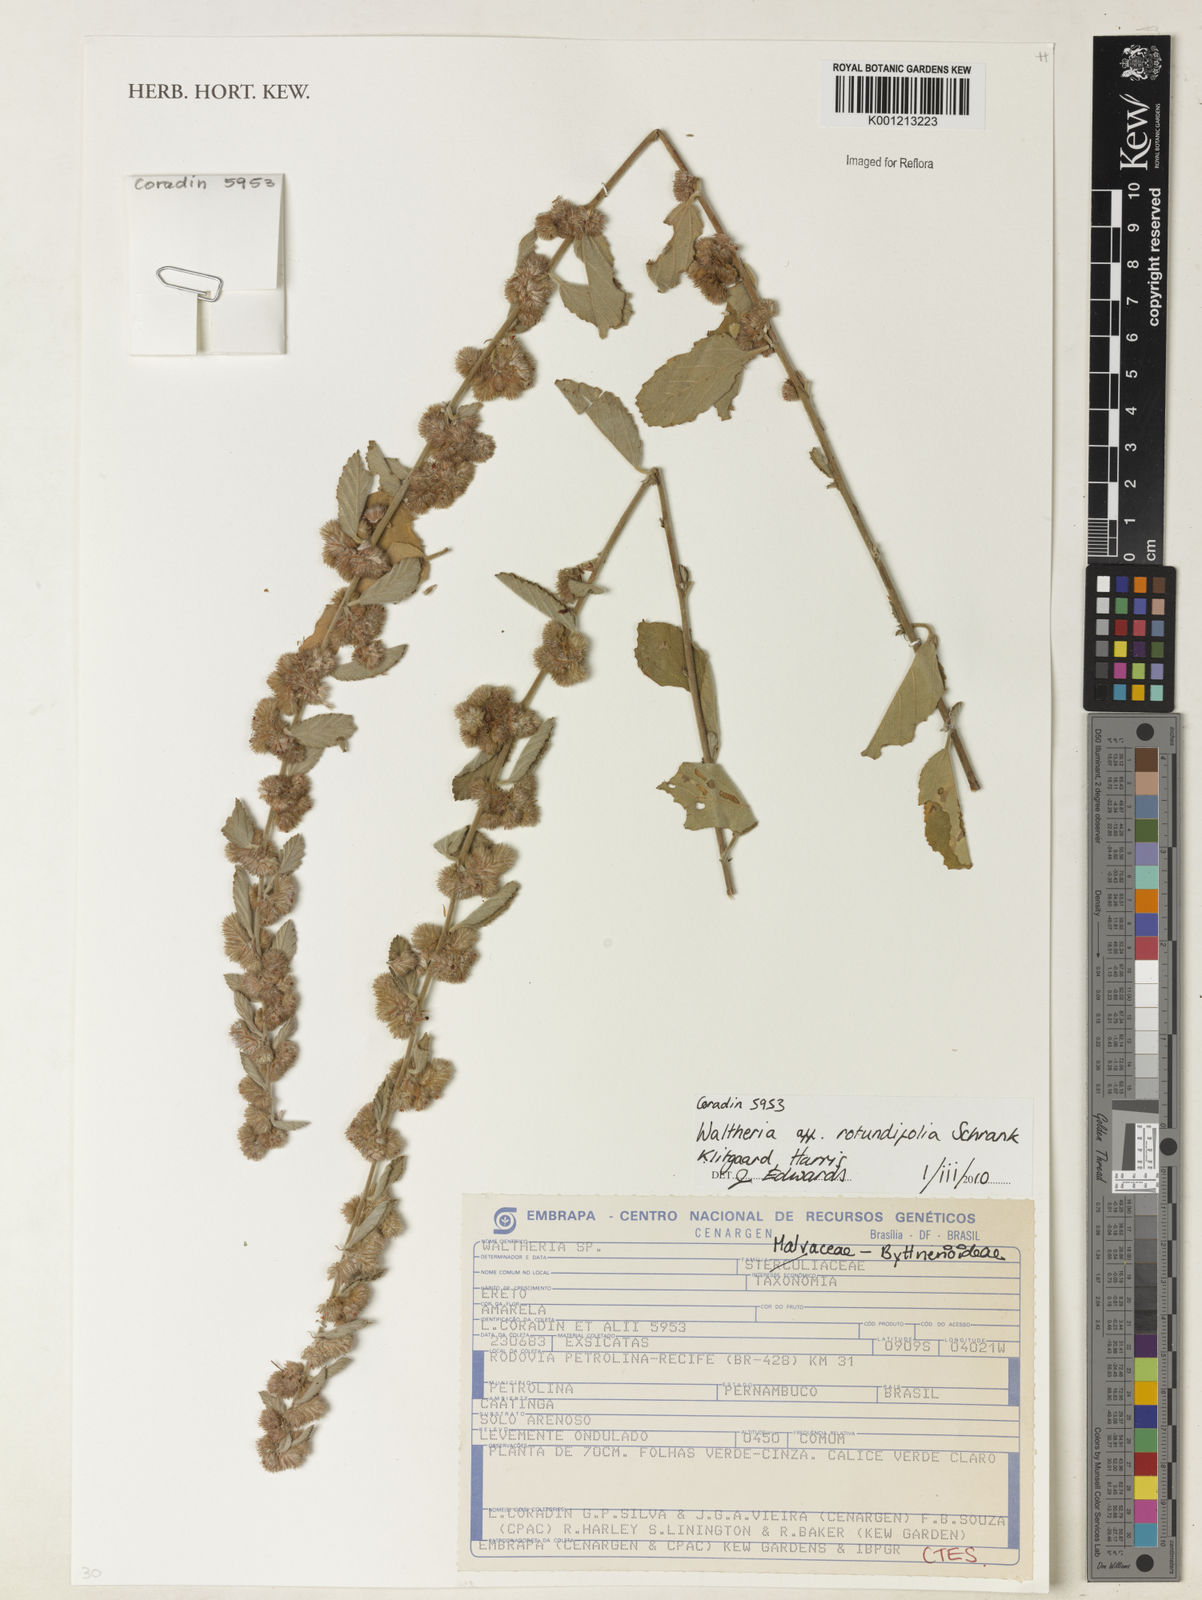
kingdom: Plantae
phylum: Tracheophyta
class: Magnoliopsida
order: Malvales
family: Malvaceae
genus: Waltheria
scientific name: Waltheria rotundifolia
